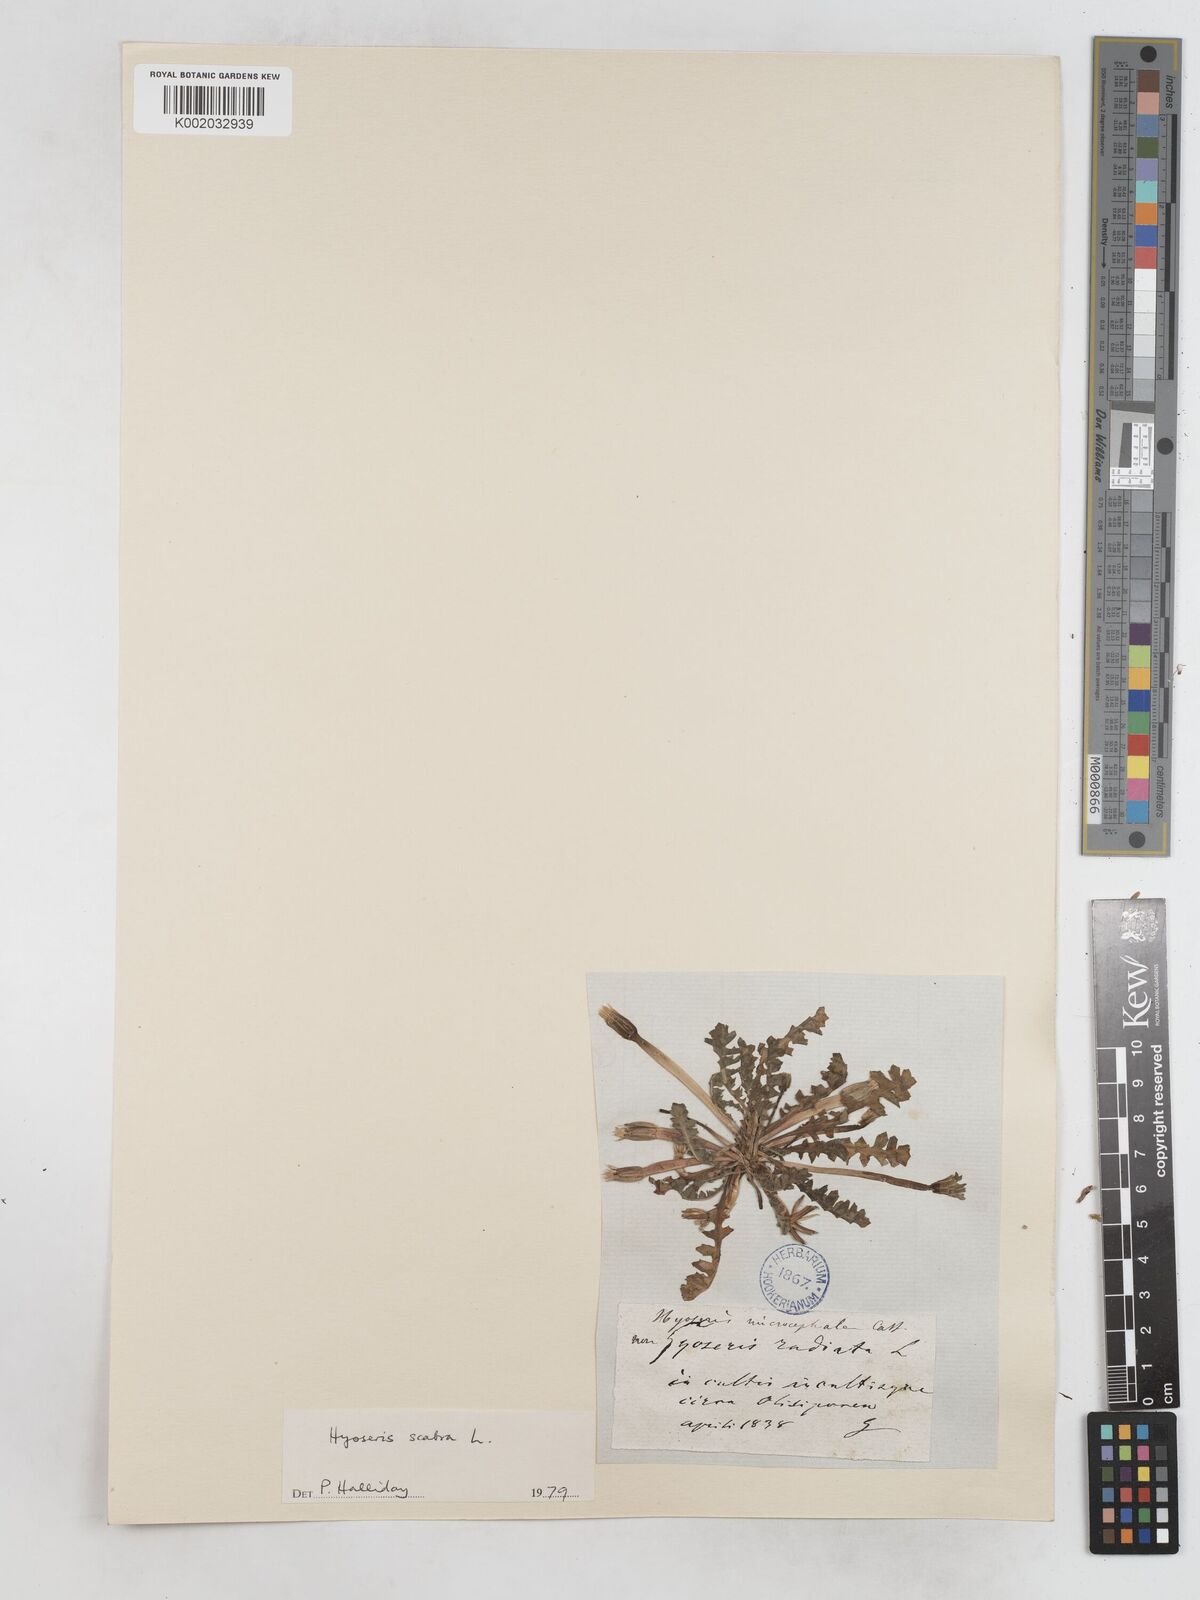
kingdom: Plantae
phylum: Tracheophyta
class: Magnoliopsida
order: Asterales
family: Asteraceae
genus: Hyoseris
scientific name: Hyoseris scabra
